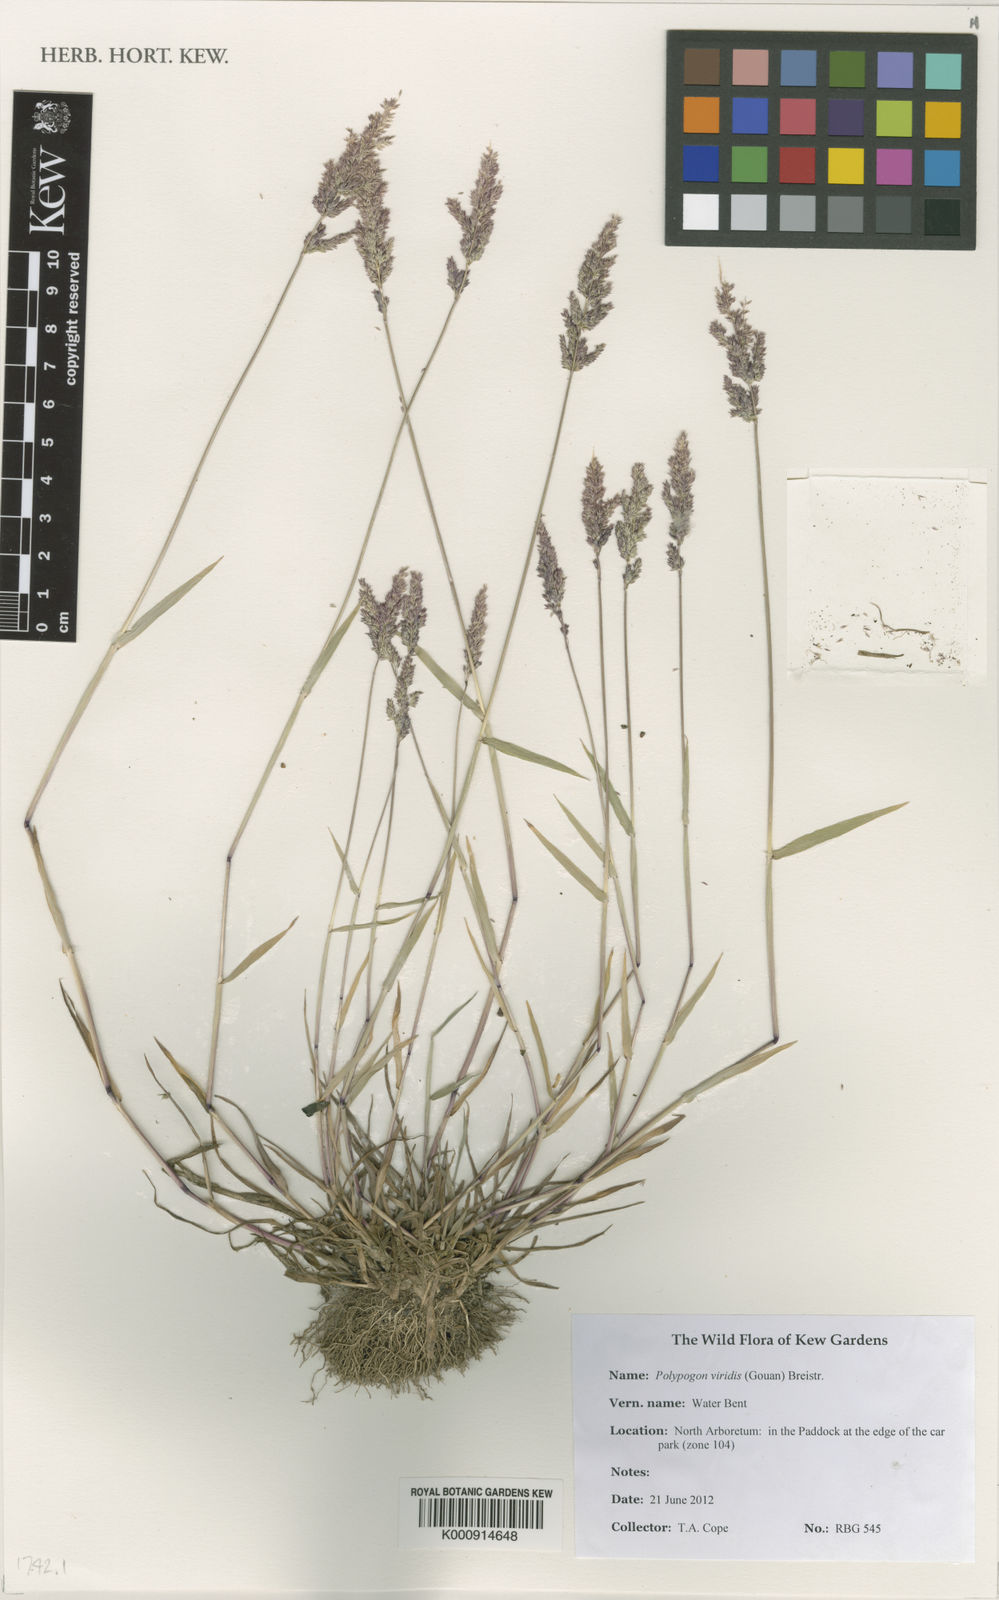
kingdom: Plantae
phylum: Tracheophyta
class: Liliopsida
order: Poales
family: Poaceae
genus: Polypogon
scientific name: Polypogon viridis
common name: Water bent
